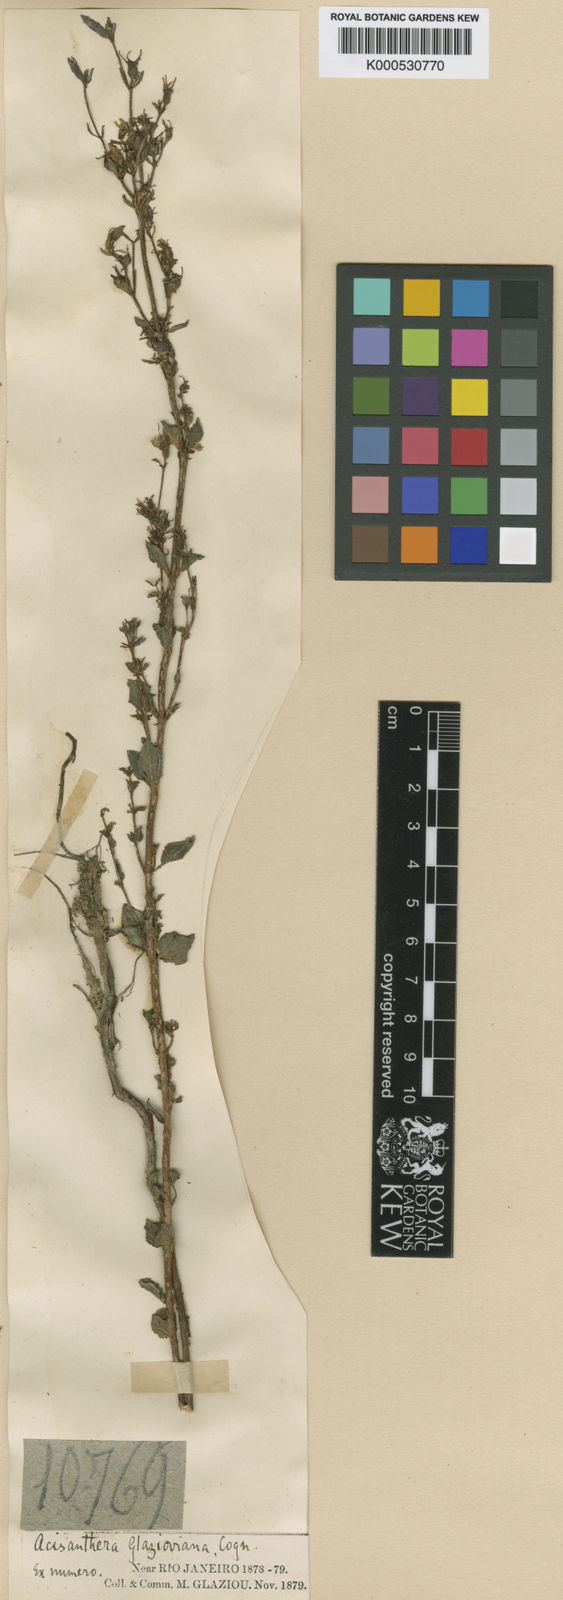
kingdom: Plantae
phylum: Tracheophyta
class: Magnoliopsida
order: Myrtales
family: Melastomataceae
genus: Acisanthera
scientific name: Acisanthera glazioviana
